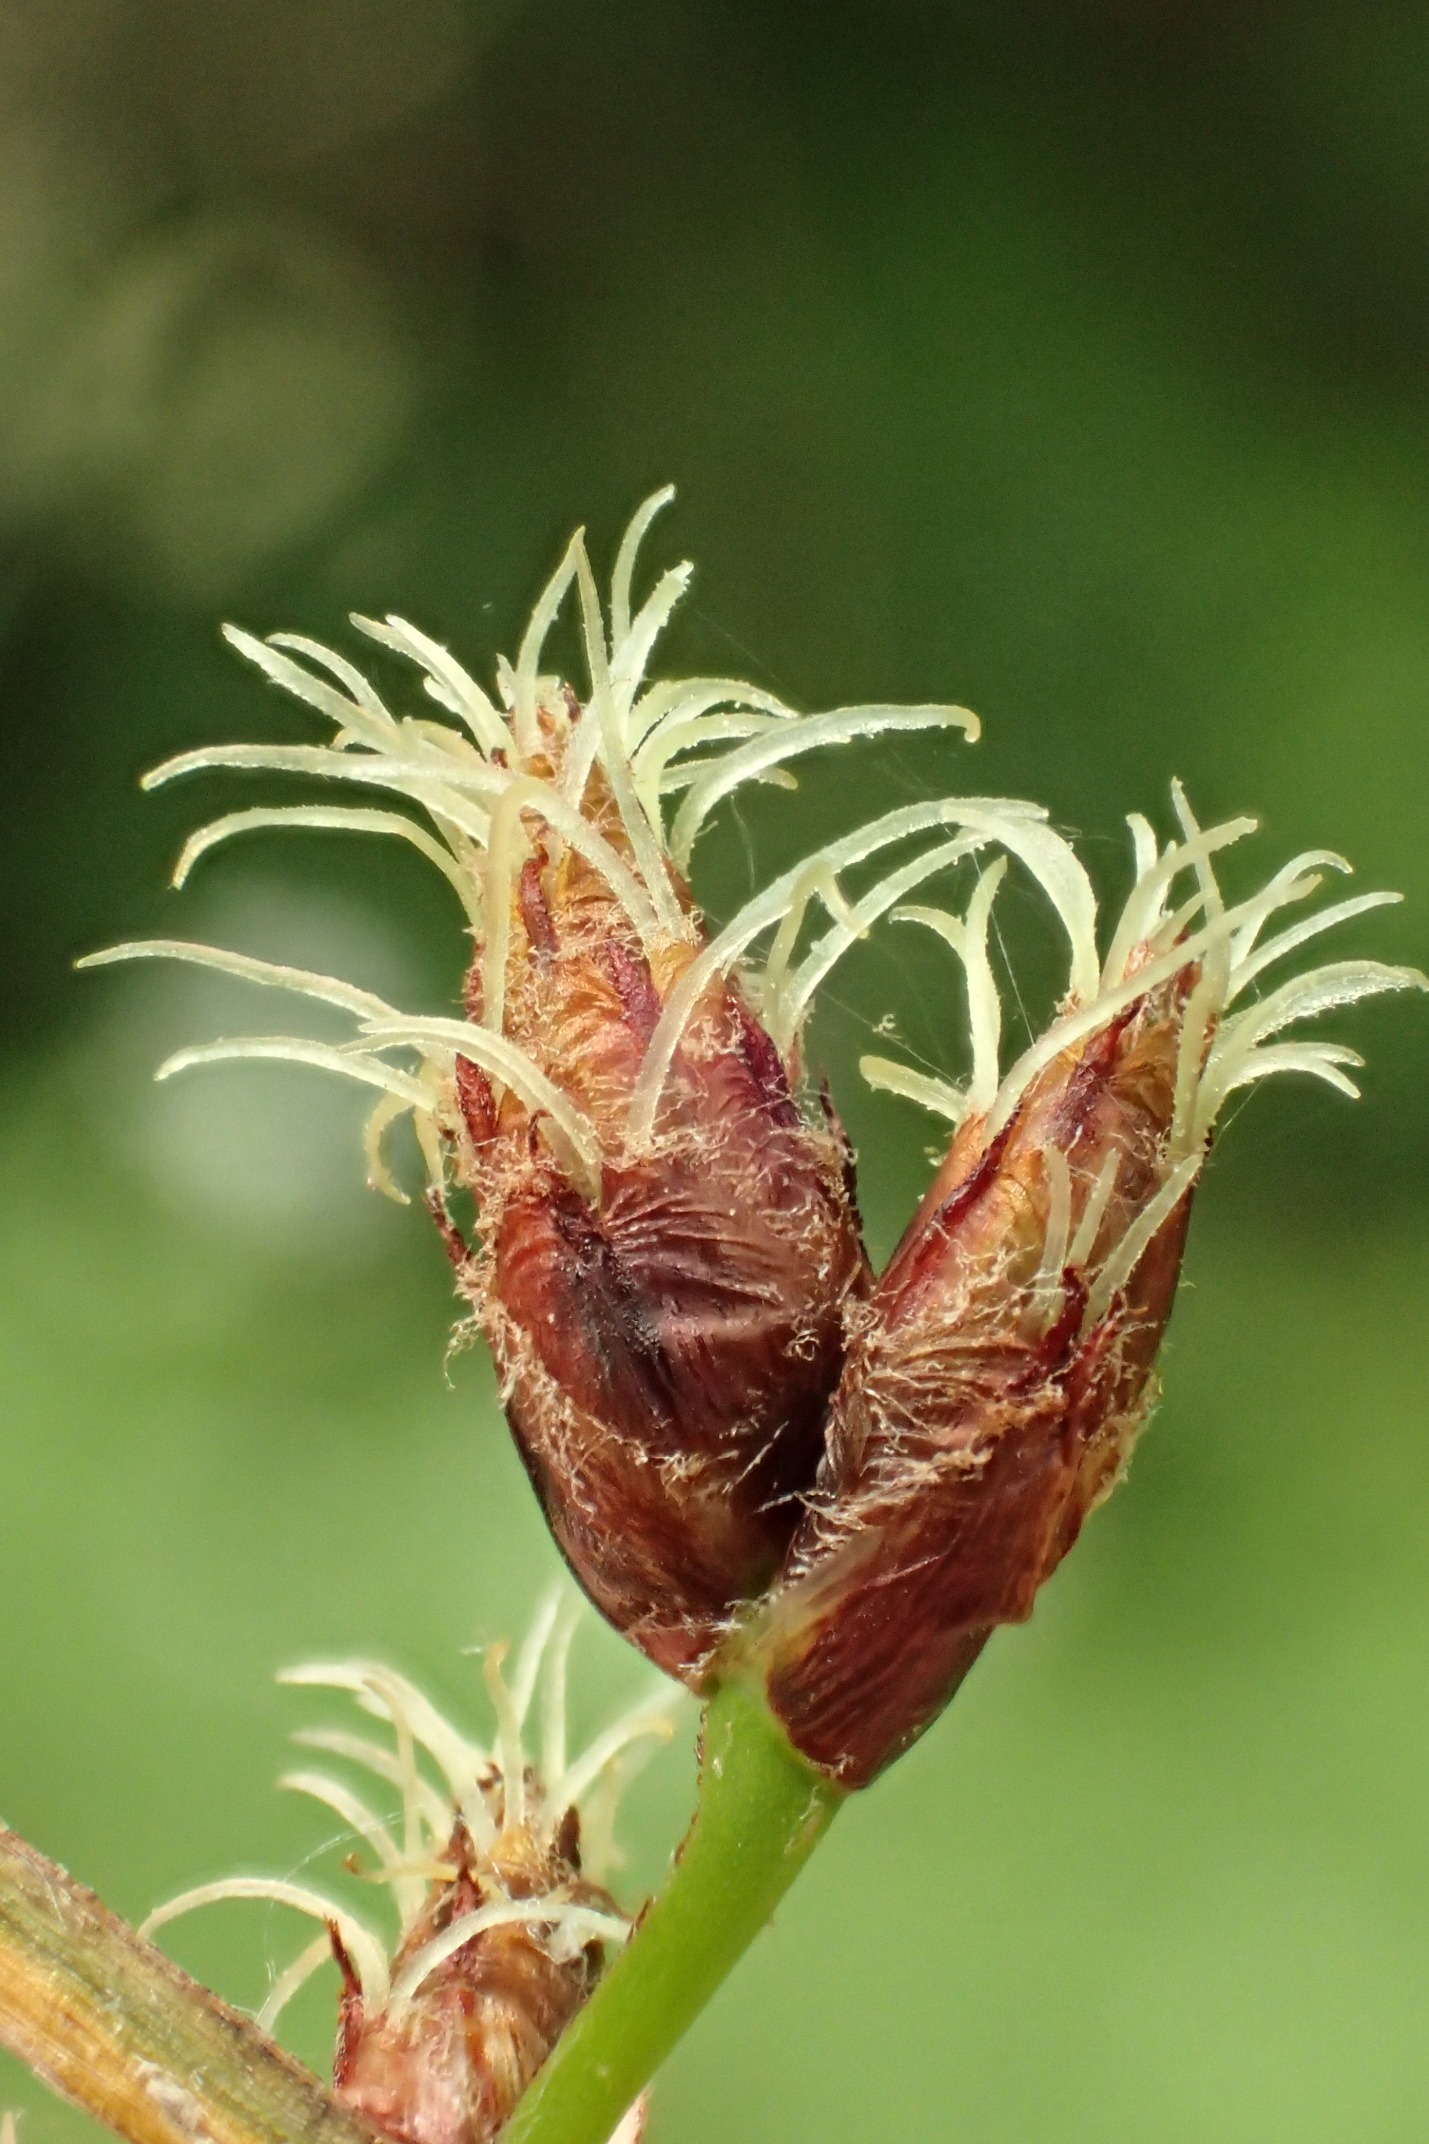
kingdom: Plantae
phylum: Tracheophyta
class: Liliopsida
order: Poales
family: Cyperaceae
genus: Schoenoplectus
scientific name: Schoenoplectus lacustris
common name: Sø-kogleaks
